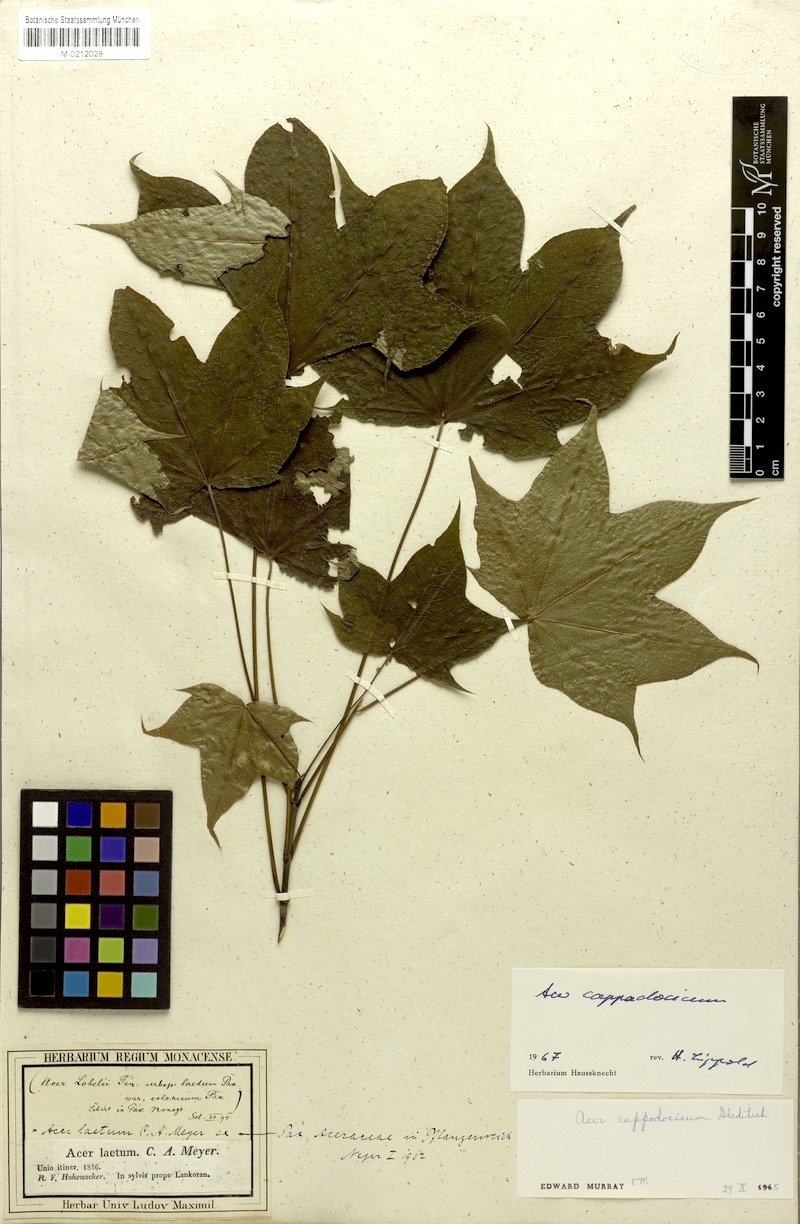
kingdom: Plantae
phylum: Tracheophyta
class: Magnoliopsida
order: Sapindales
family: Sapindaceae
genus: Acer
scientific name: Acer cappadocicum
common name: Cappadocian maple
